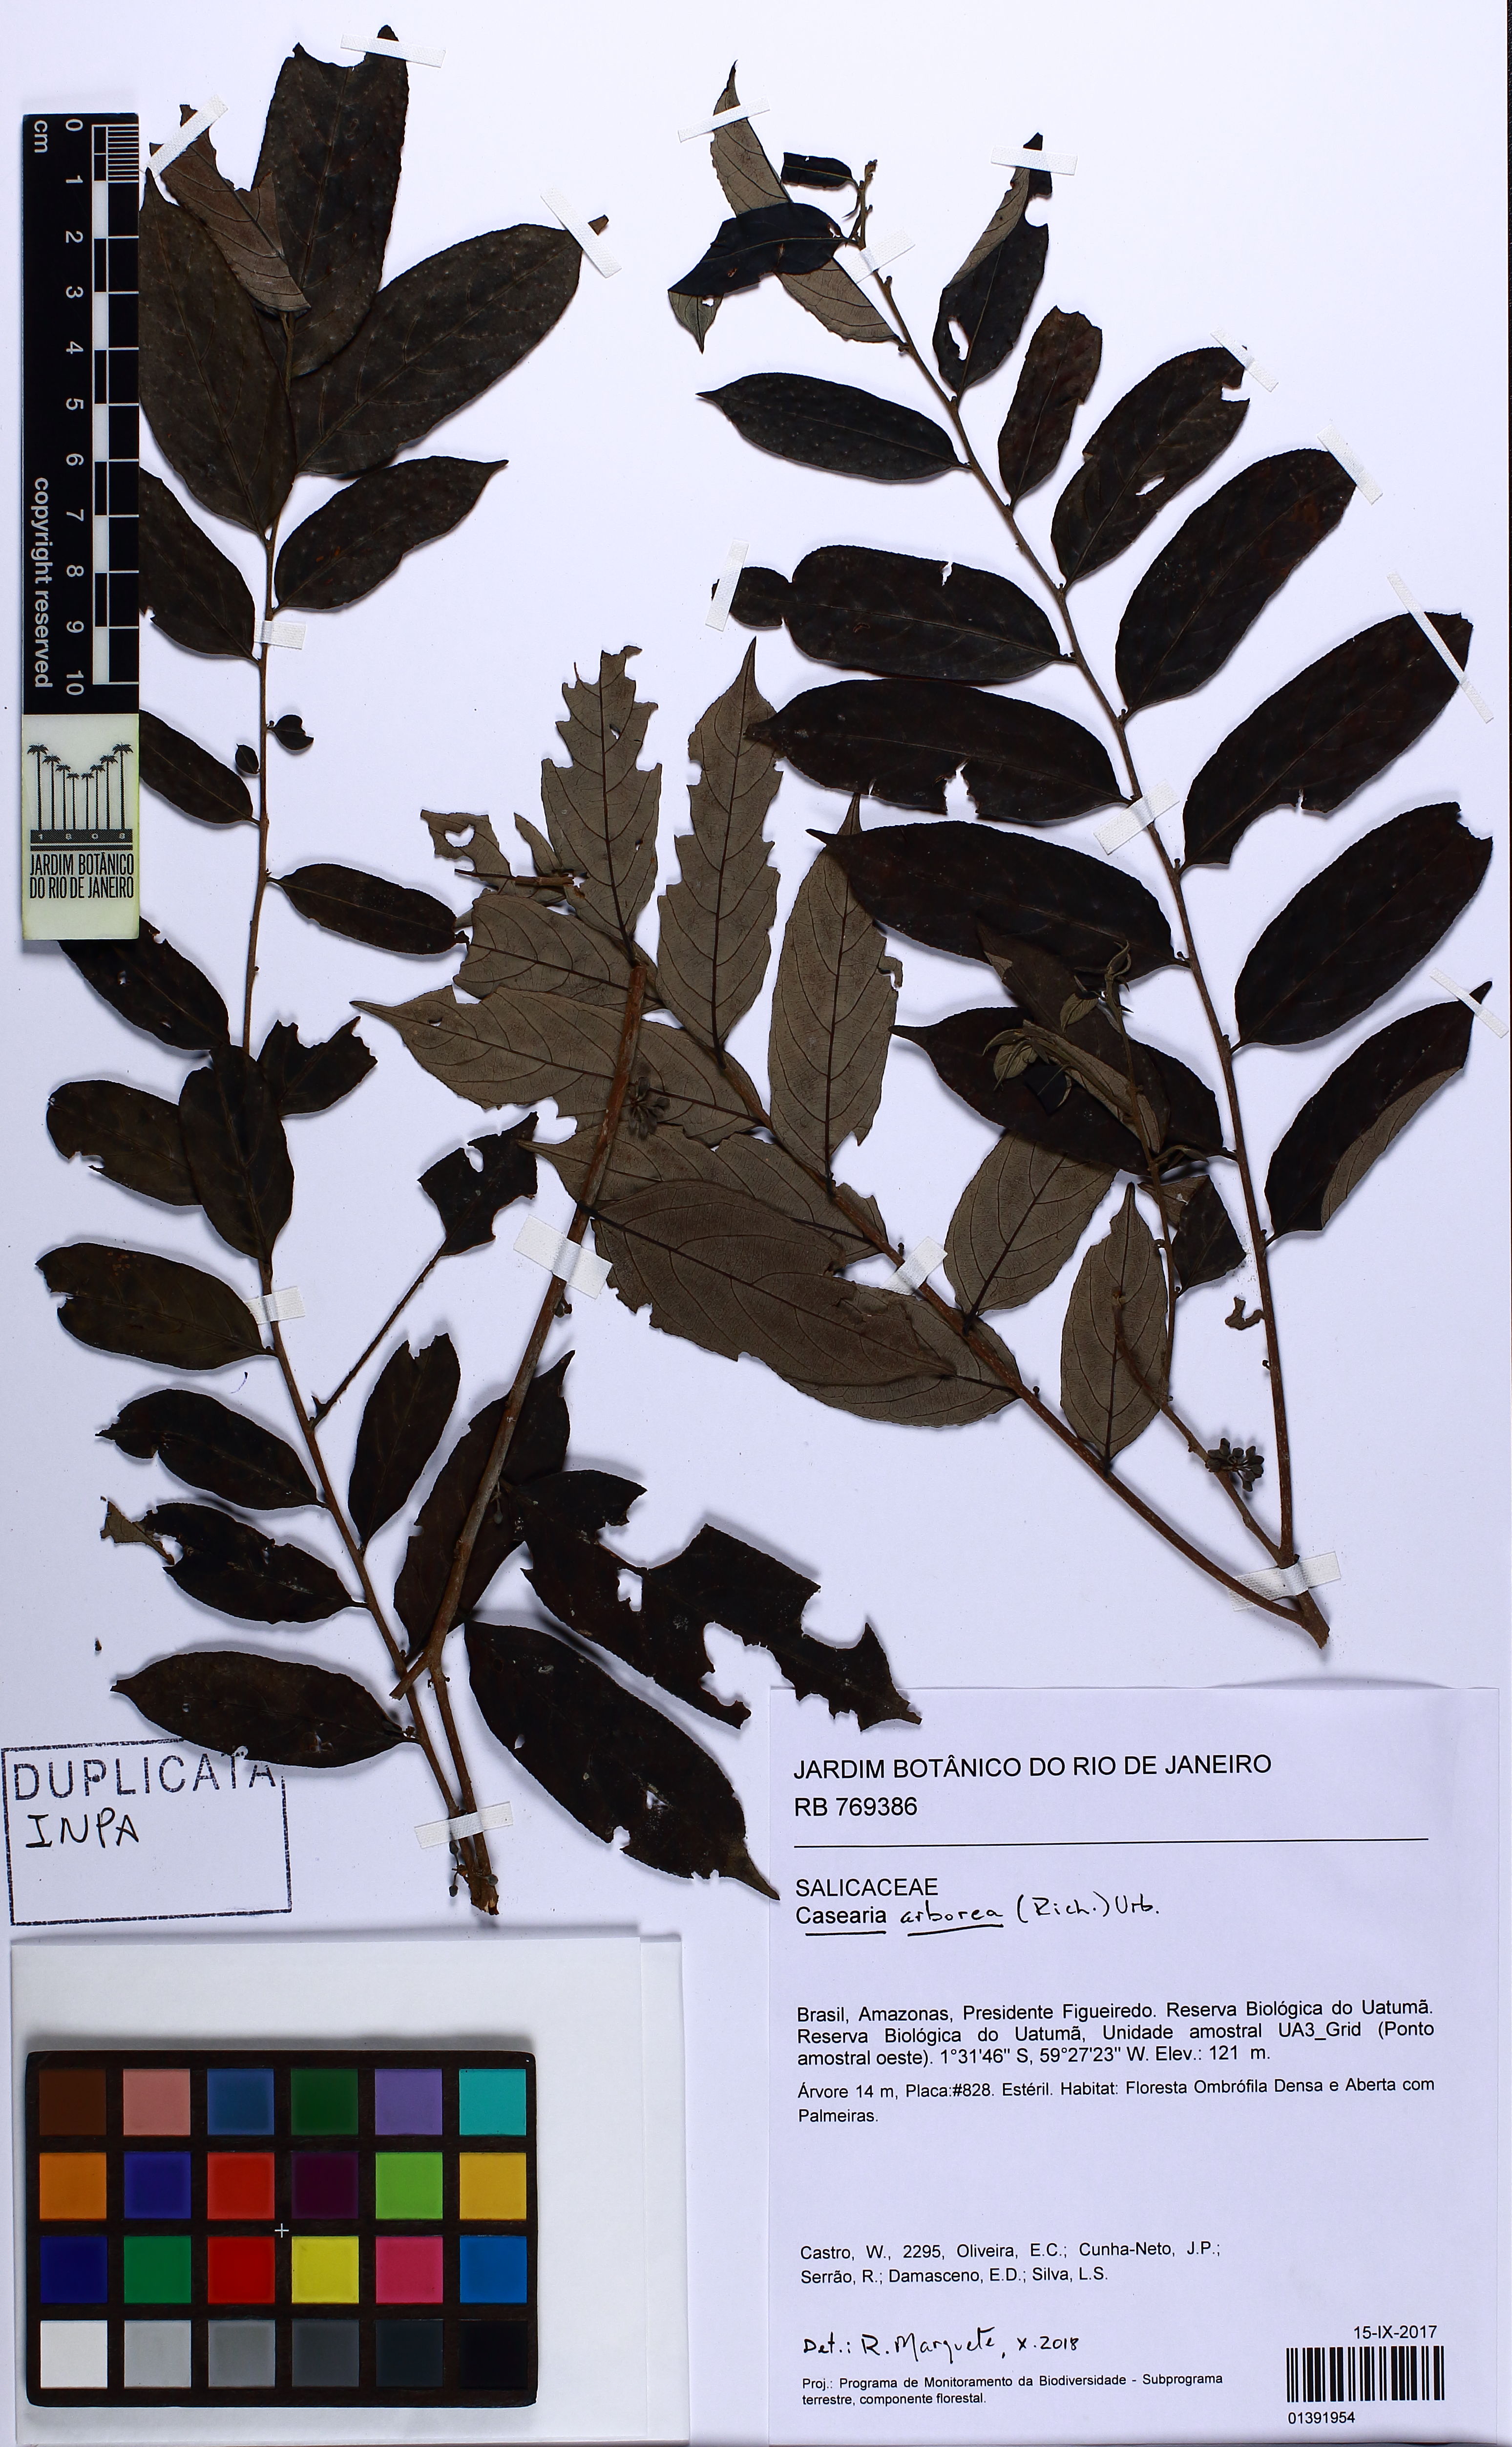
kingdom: Plantae
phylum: Tracheophyta
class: Magnoliopsida
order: Malpighiales
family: Salicaceae
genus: Casearia
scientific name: Casearia arborea
